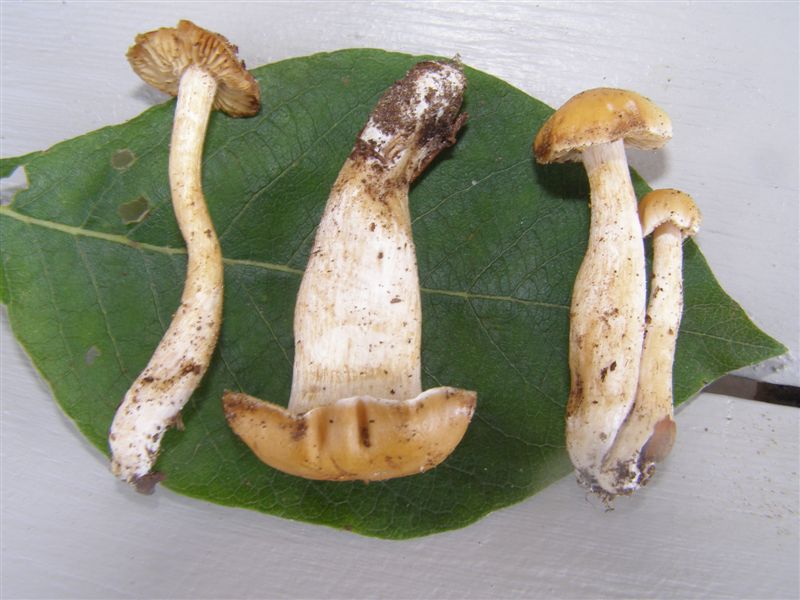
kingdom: Fungi
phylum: Basidiomycota
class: Agaricomycetes
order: Agaricales
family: Cortinariaceae
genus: Cortinarius
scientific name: Cortinarius croceocristallinus
